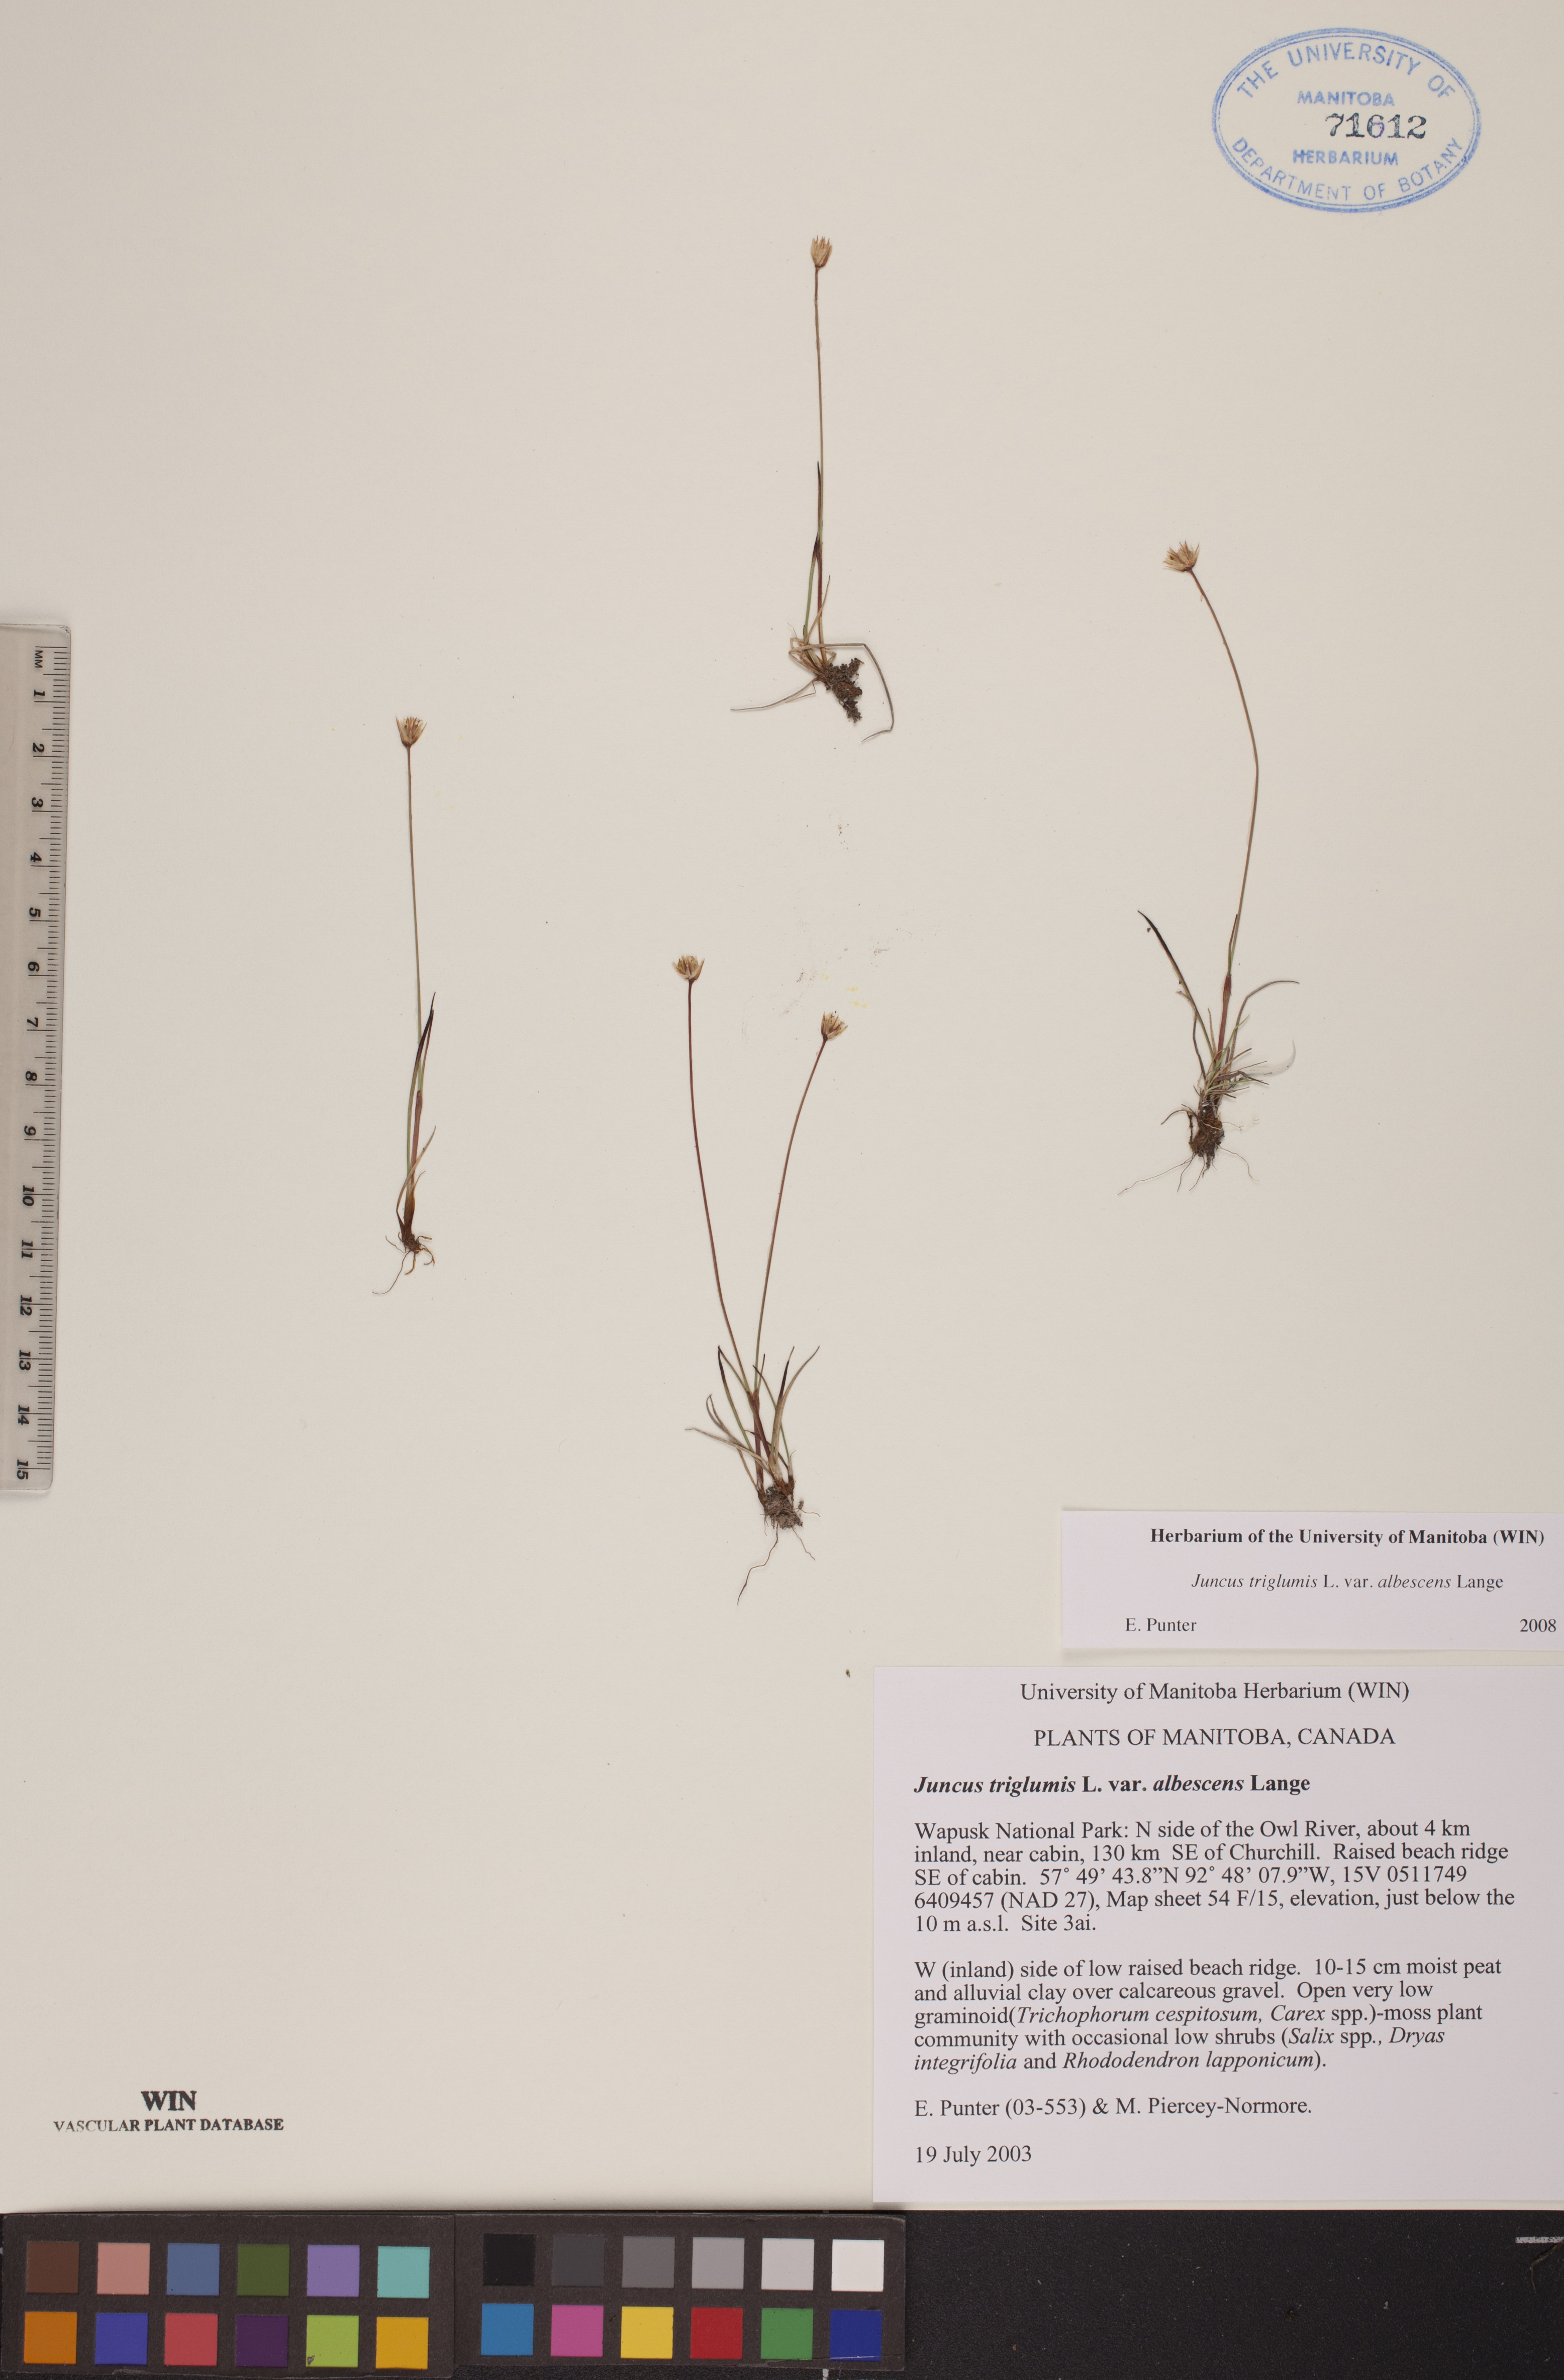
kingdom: Plantae
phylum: Tracheophyta
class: Liliopsida
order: Poales
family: Juncaceae
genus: Juncus
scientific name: Juncus albescens
